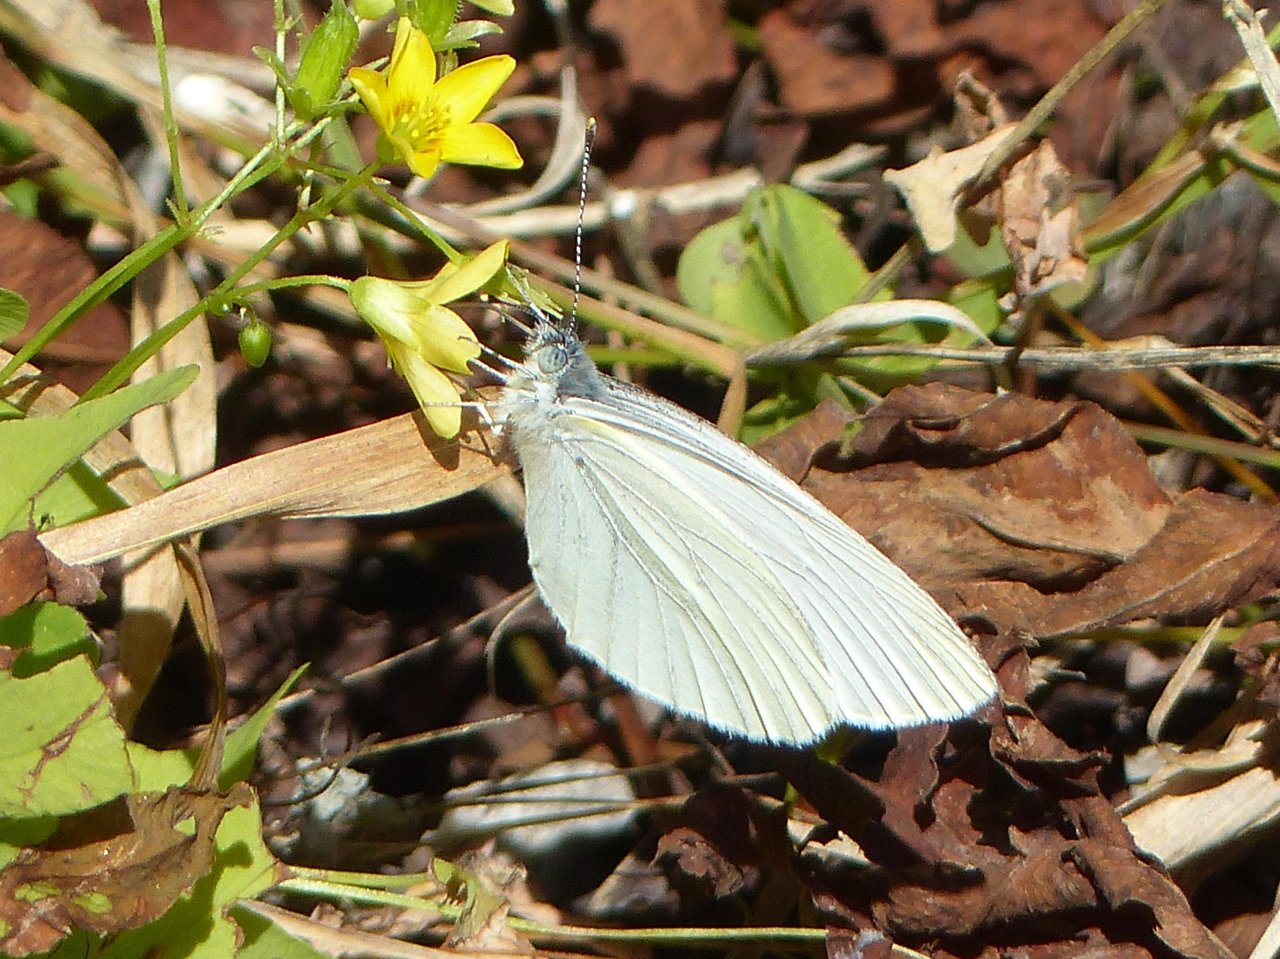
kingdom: Animalia
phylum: Arthropoda
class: Insecta
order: Lepidoptera
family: Pieridae
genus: Pieris
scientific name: Pieris oleracea
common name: Mustard White
